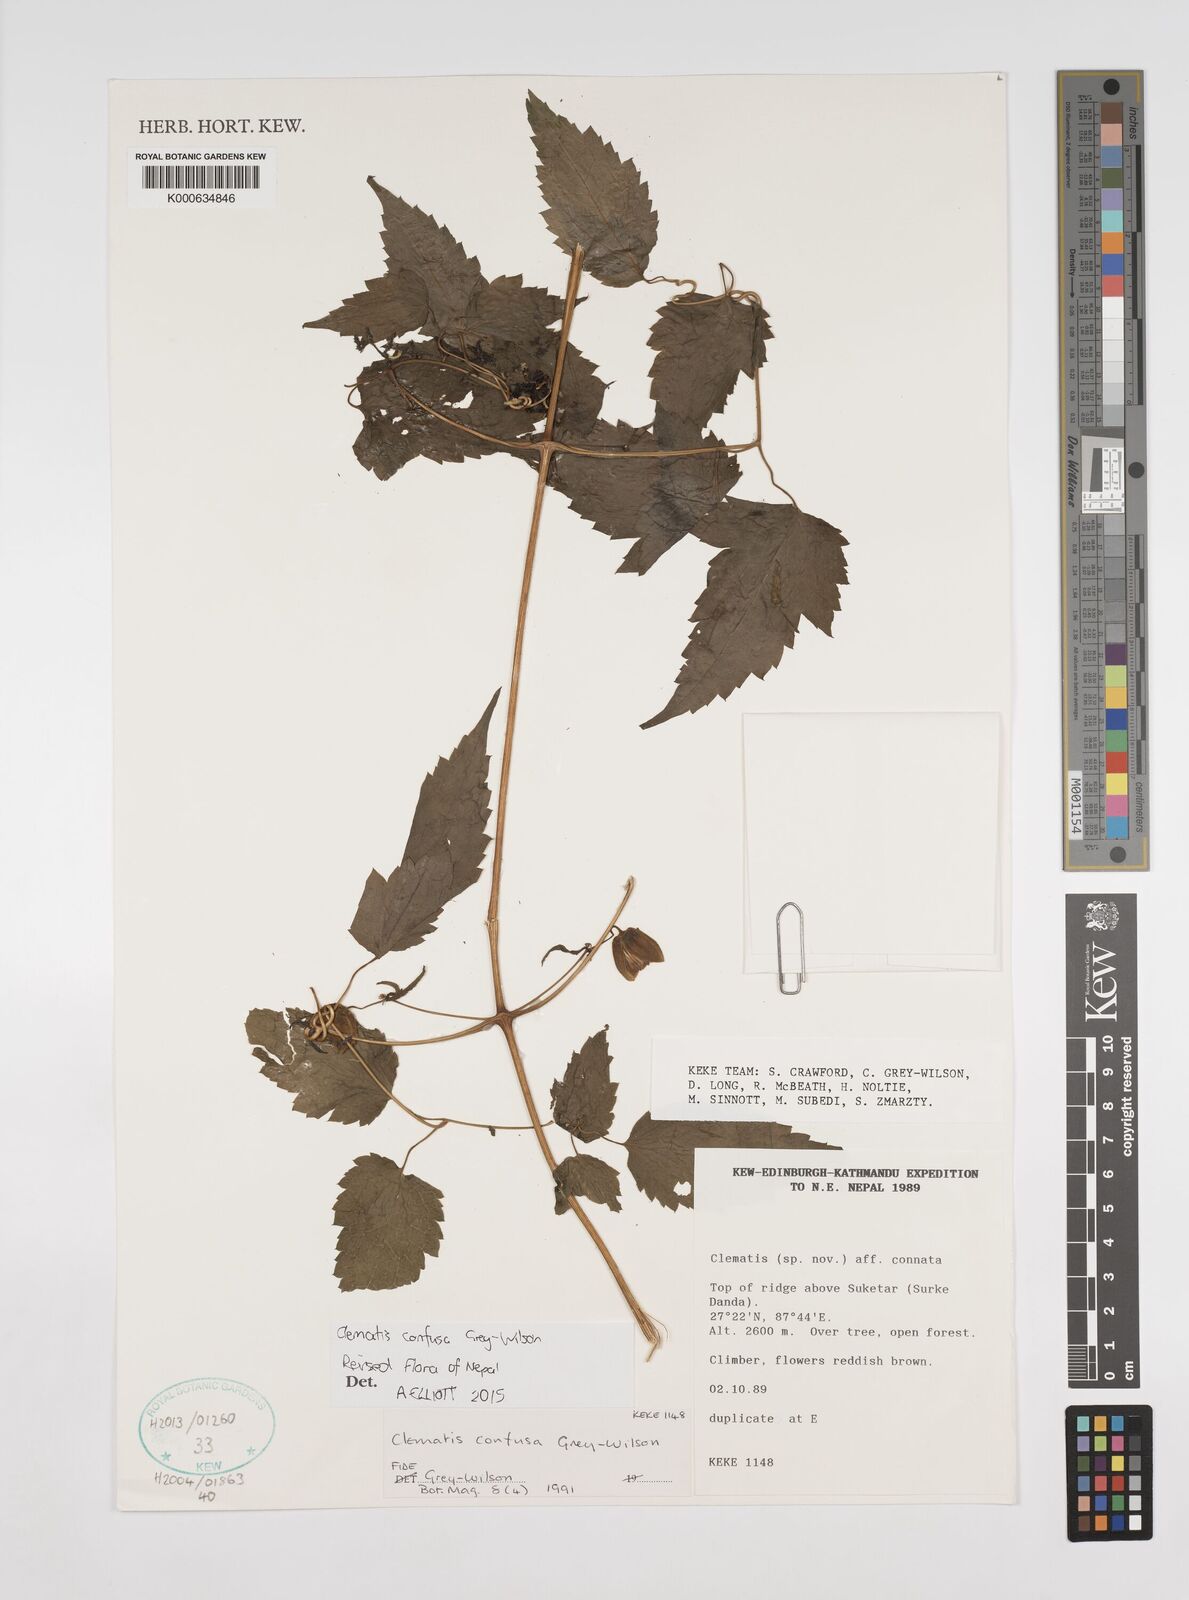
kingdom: Plantae
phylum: Tracheophyta
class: Magnoliopsida
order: Ranunculales
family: Ranunculaceae
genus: Clematis
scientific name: Clematis connata
